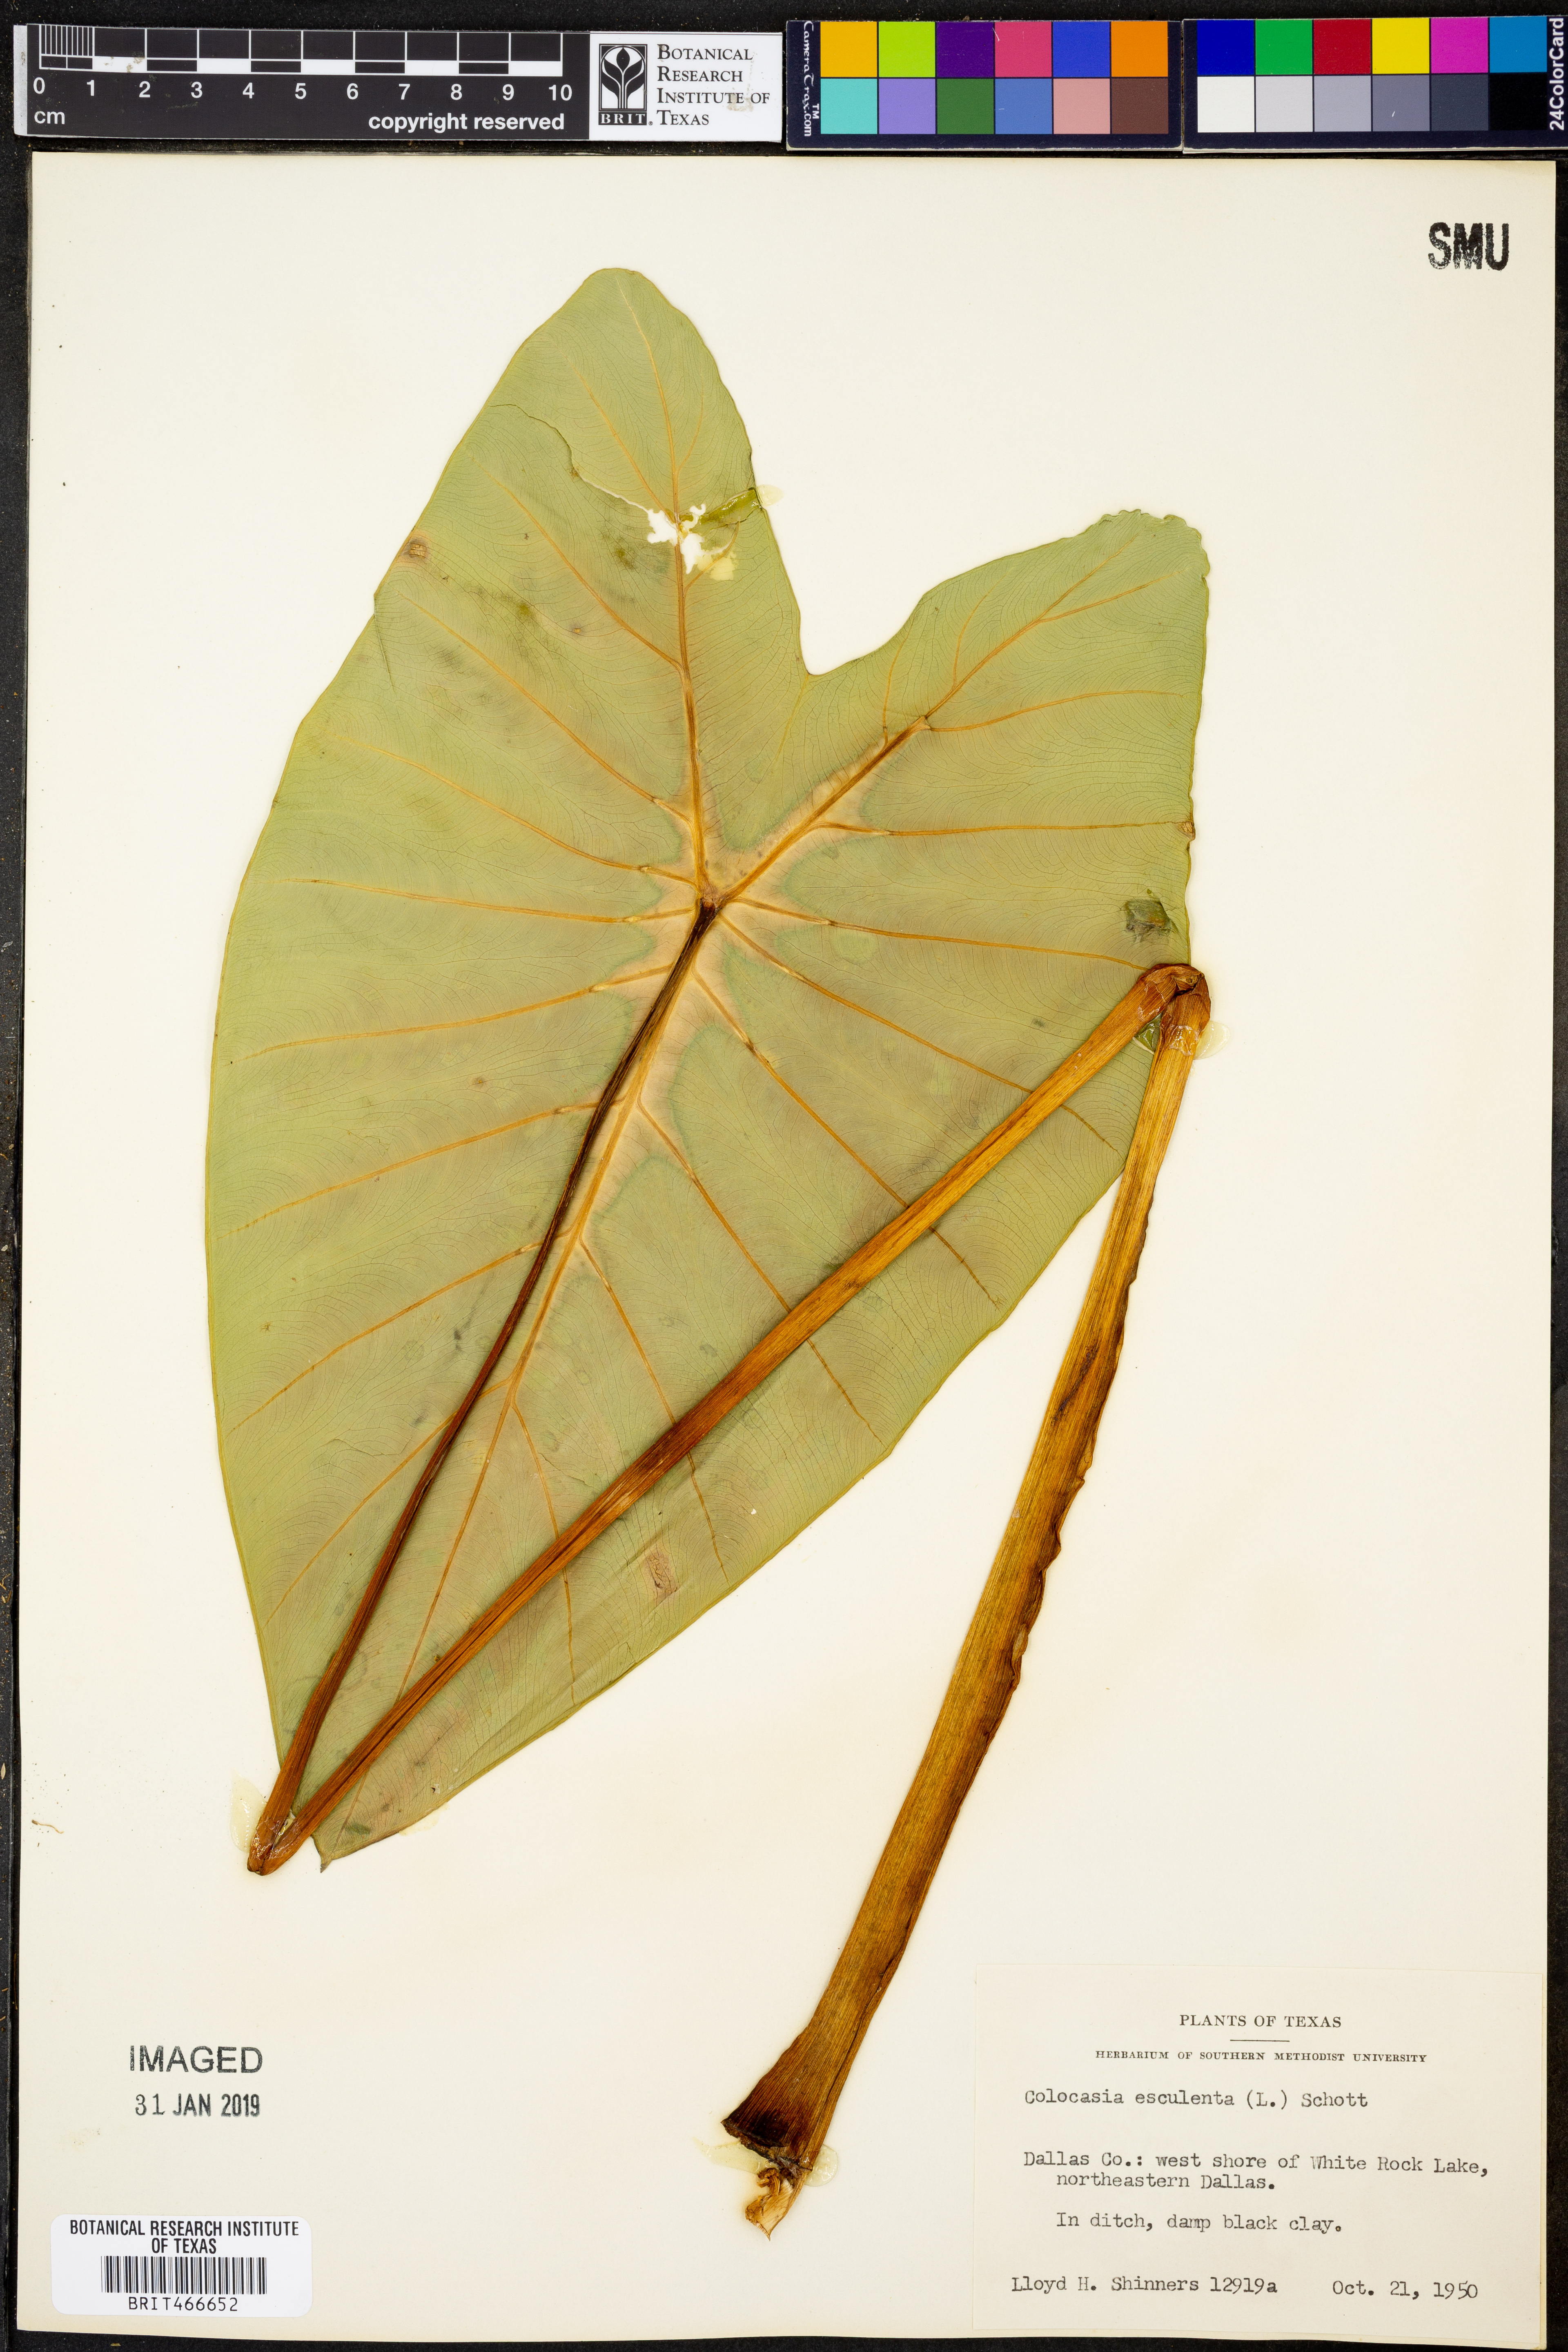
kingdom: Plantae
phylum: Tracheophyta
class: Liliopsida
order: Alismatales
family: Araceae
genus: Colocasia
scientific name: Colocasia esculenta
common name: Taro
